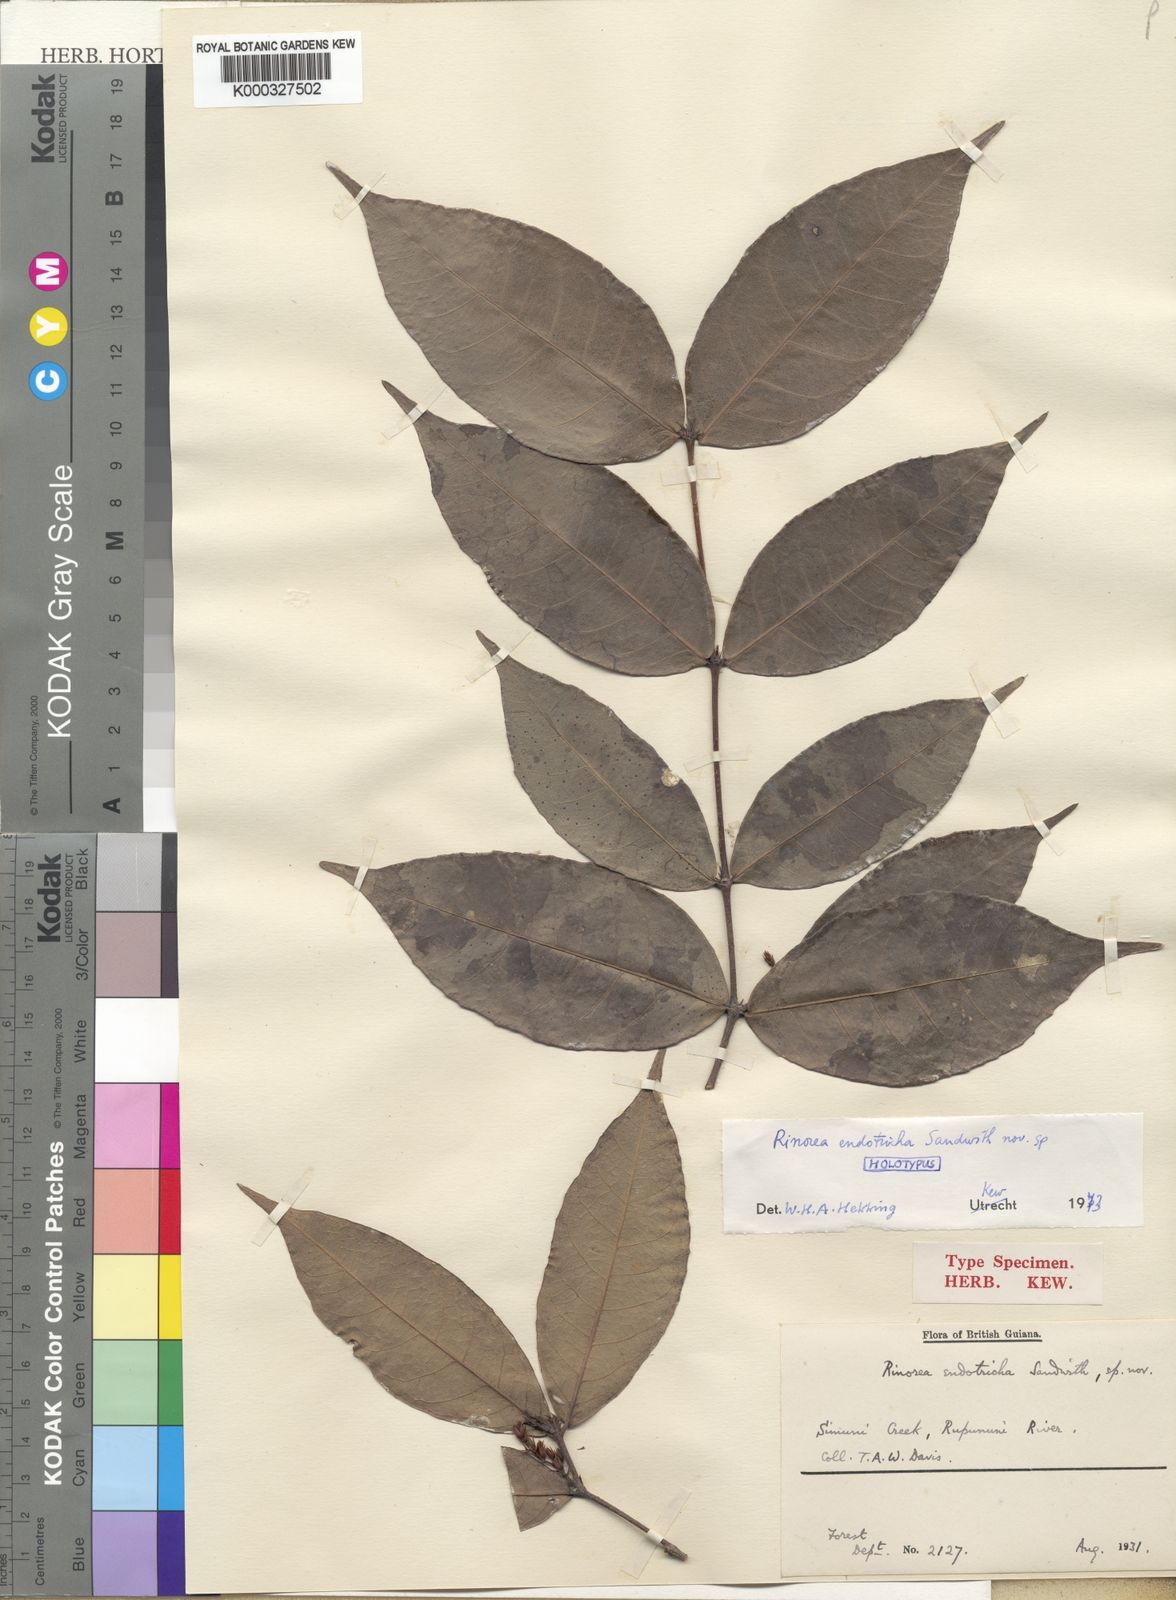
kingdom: Plantae
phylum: Tracheophyta
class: Magnoliopsida
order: Malpighiales
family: Violaceae
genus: Rinorea
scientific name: Rinorea endotricha
